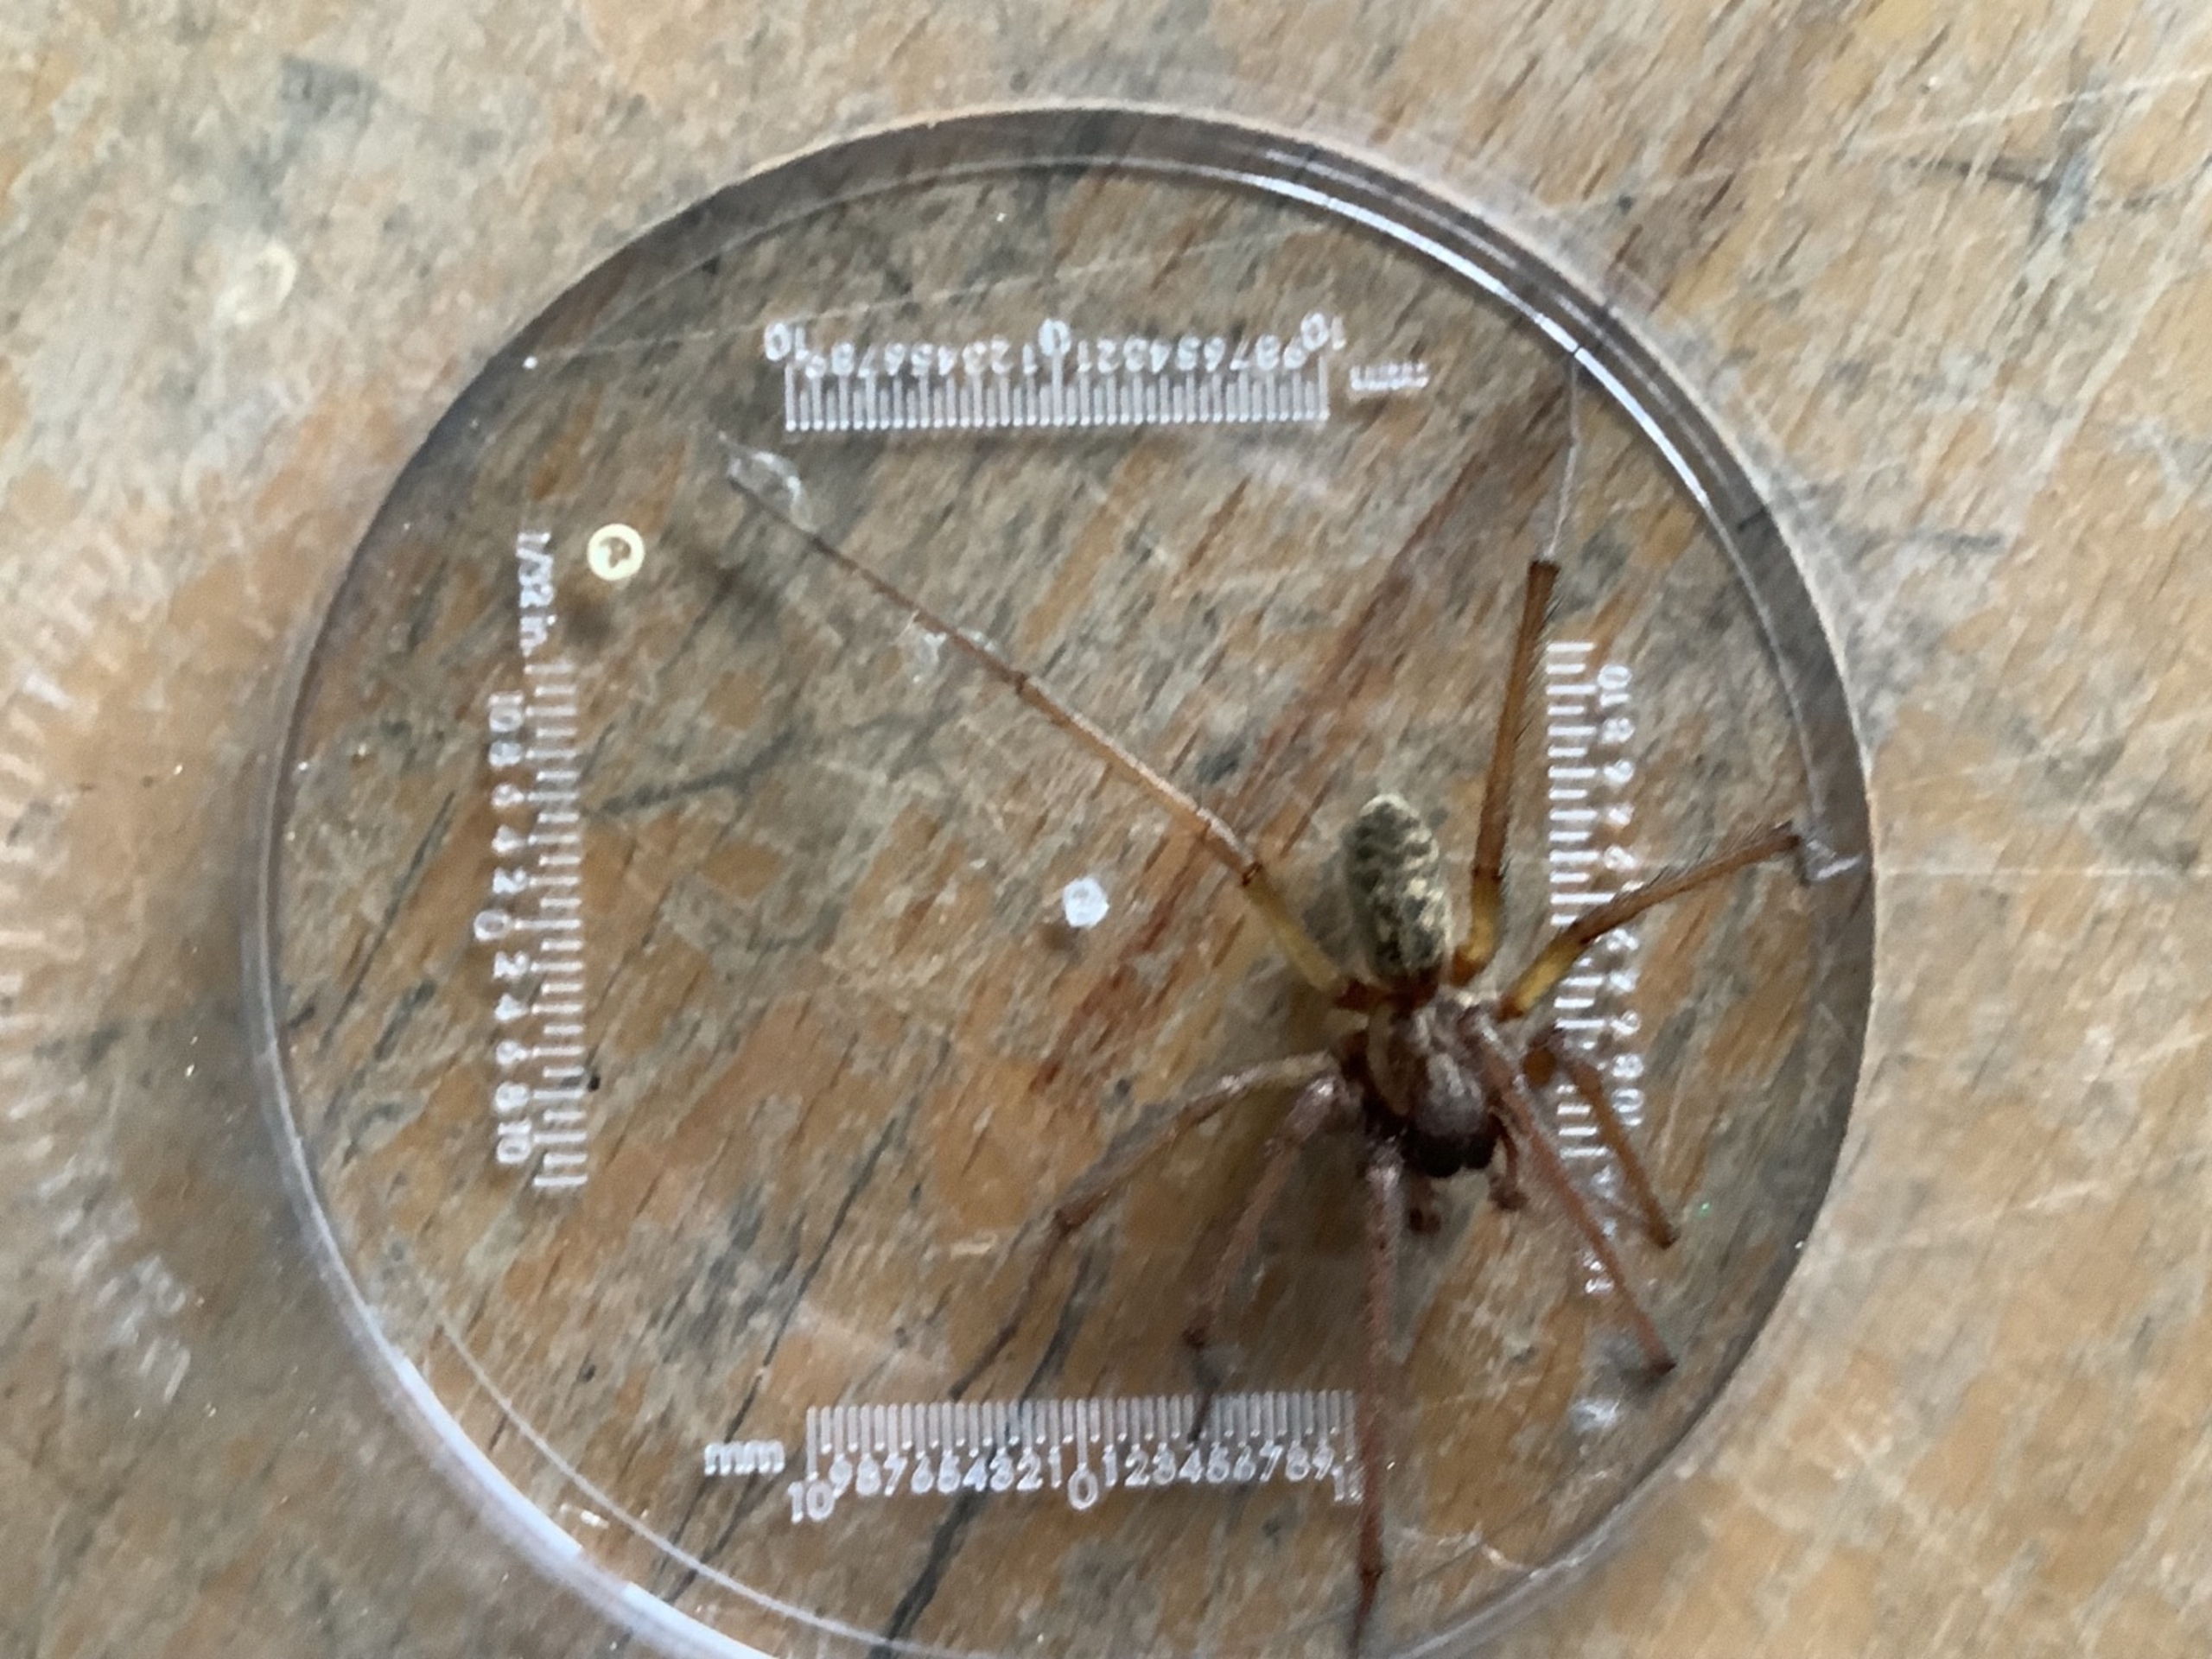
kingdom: Animalia
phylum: Arthropoda
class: Arachnida
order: Araneae
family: Agelenidae
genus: Eratigena
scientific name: Eratigena atrica
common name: Stor husedderkop
